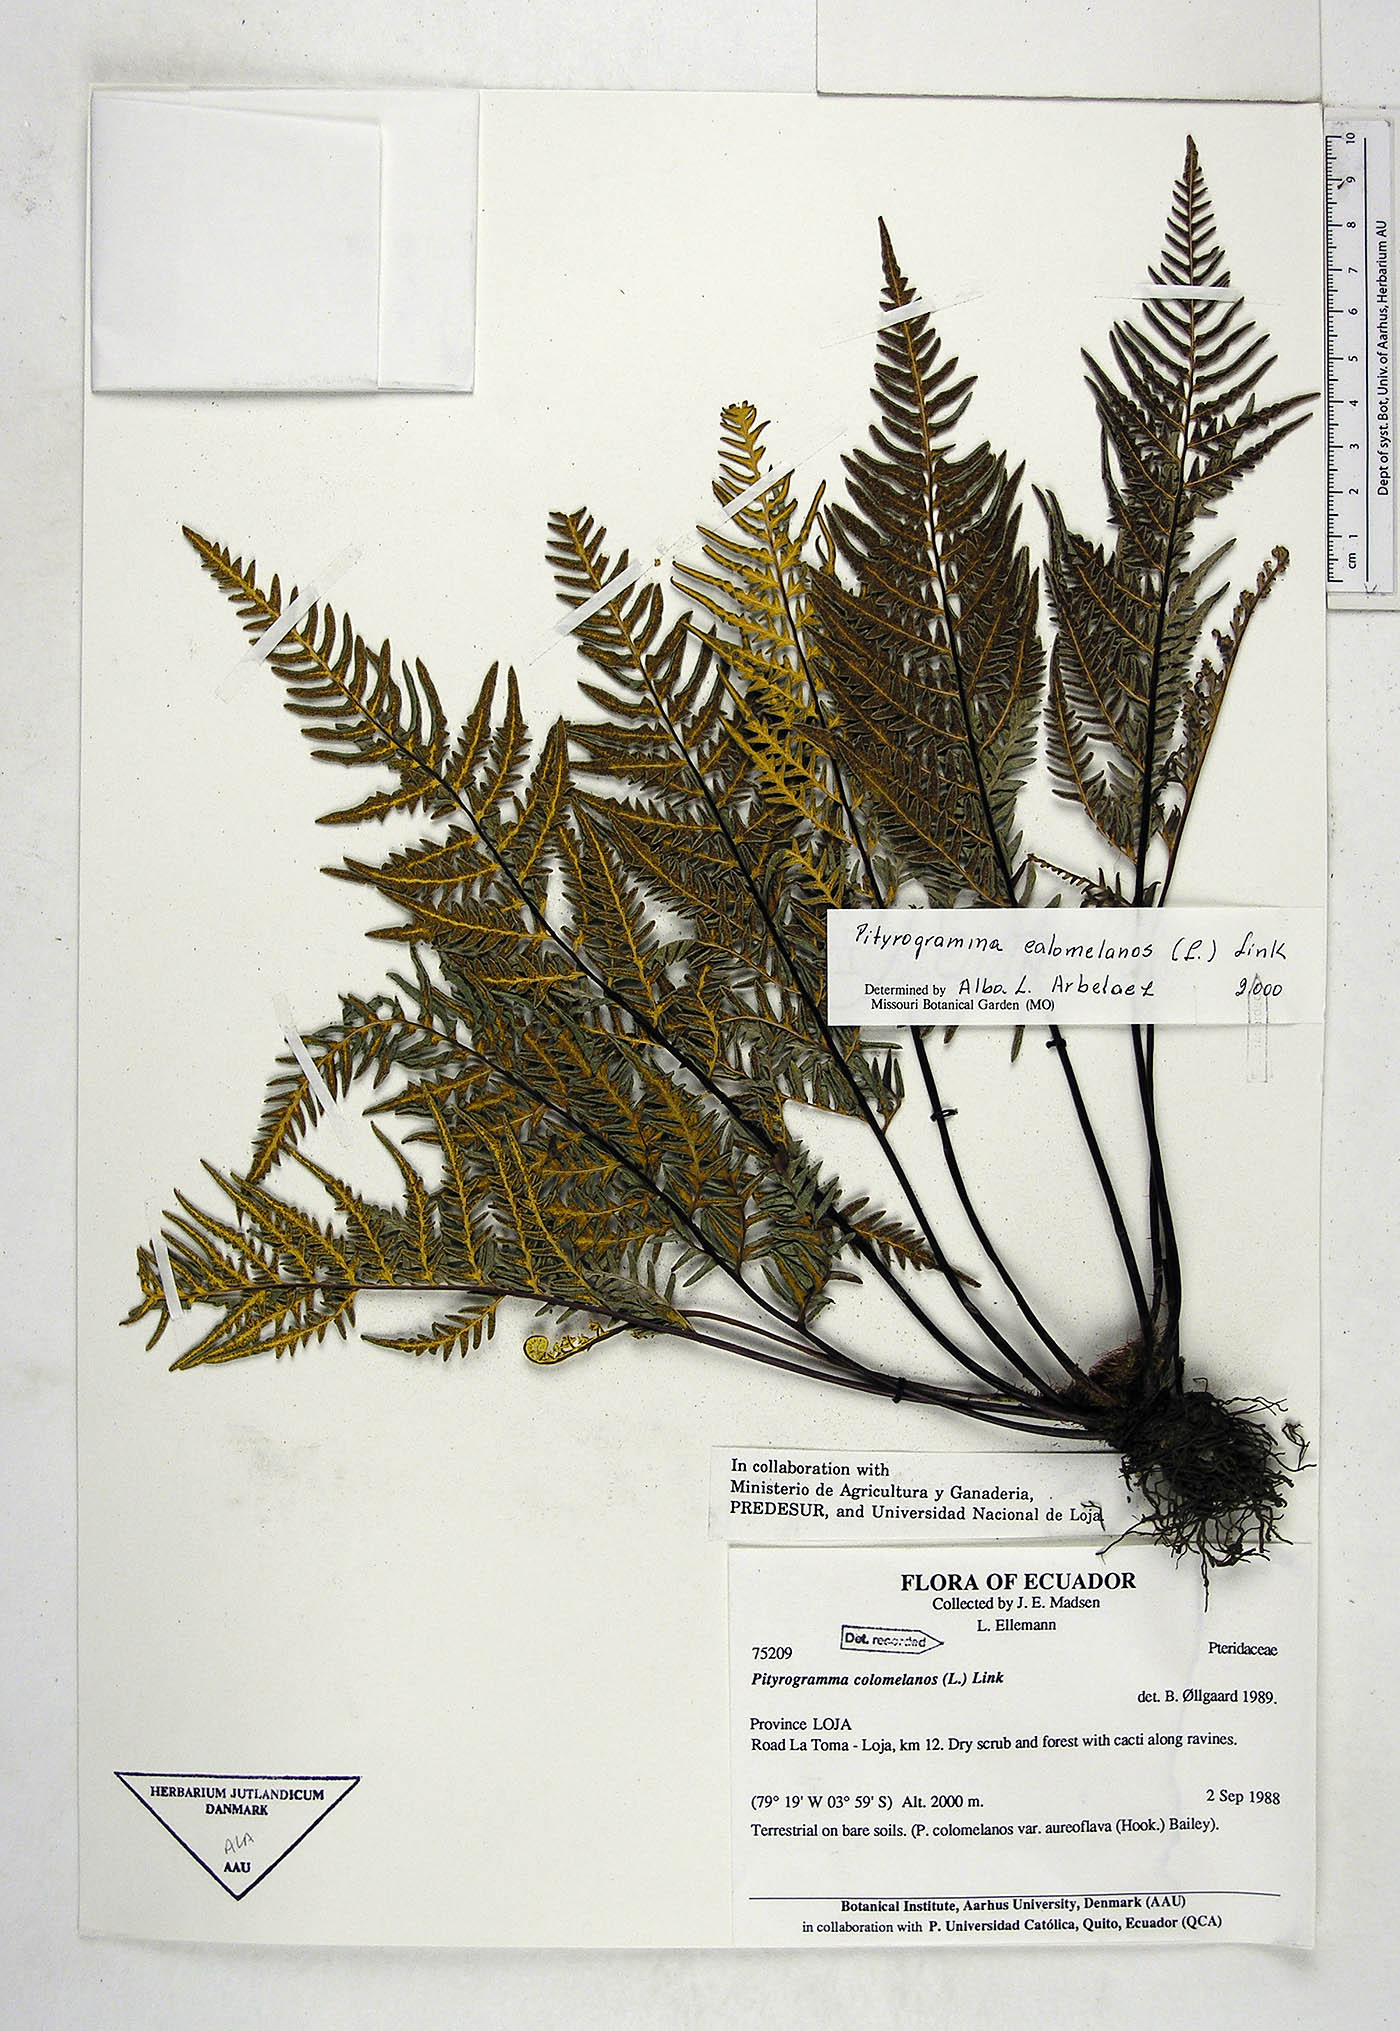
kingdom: Plantae
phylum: Tracheophyta
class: Polypodiopsida
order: Polypodiales
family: Pteridaceae
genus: Pityrogramma
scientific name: Pityrogramma calomelanos
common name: Dixie silverback fern
